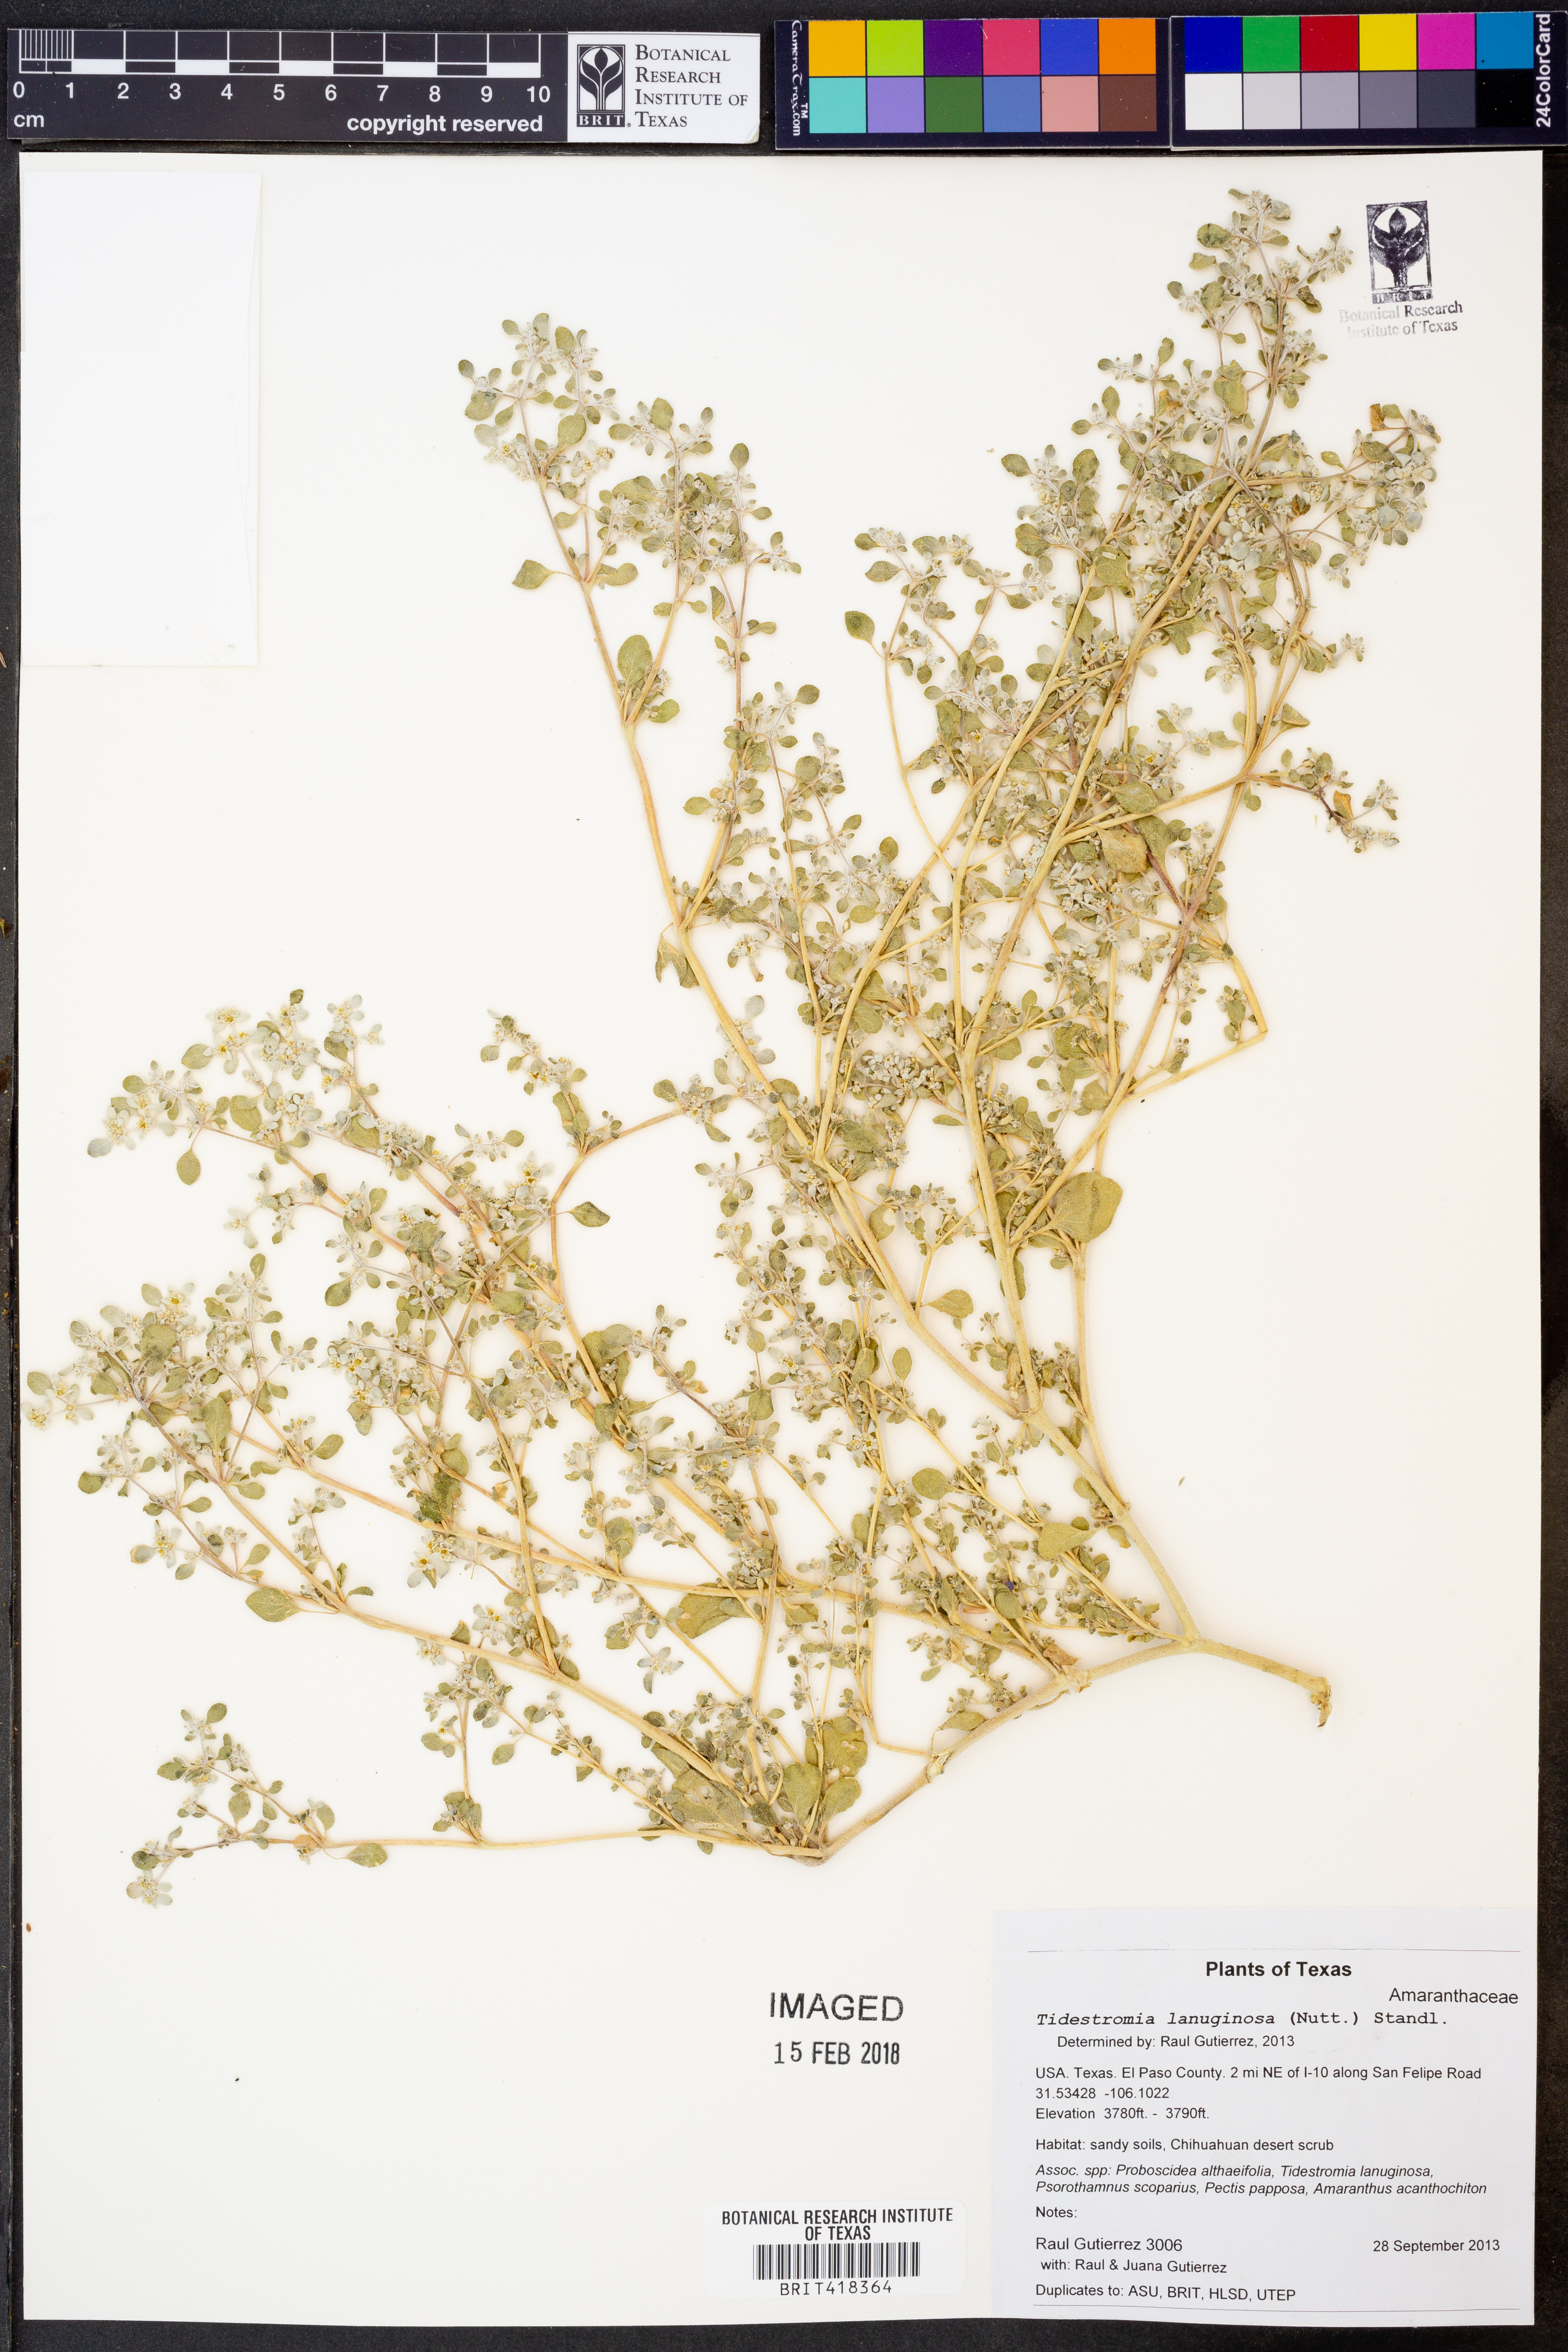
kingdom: Plantae
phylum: Tracheophyta
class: Magnoliopsida
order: Caryophyllales
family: Amaranthaceae
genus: Tidestromia
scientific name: Tidestromia lanuginosa
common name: Woolly tidestromia
